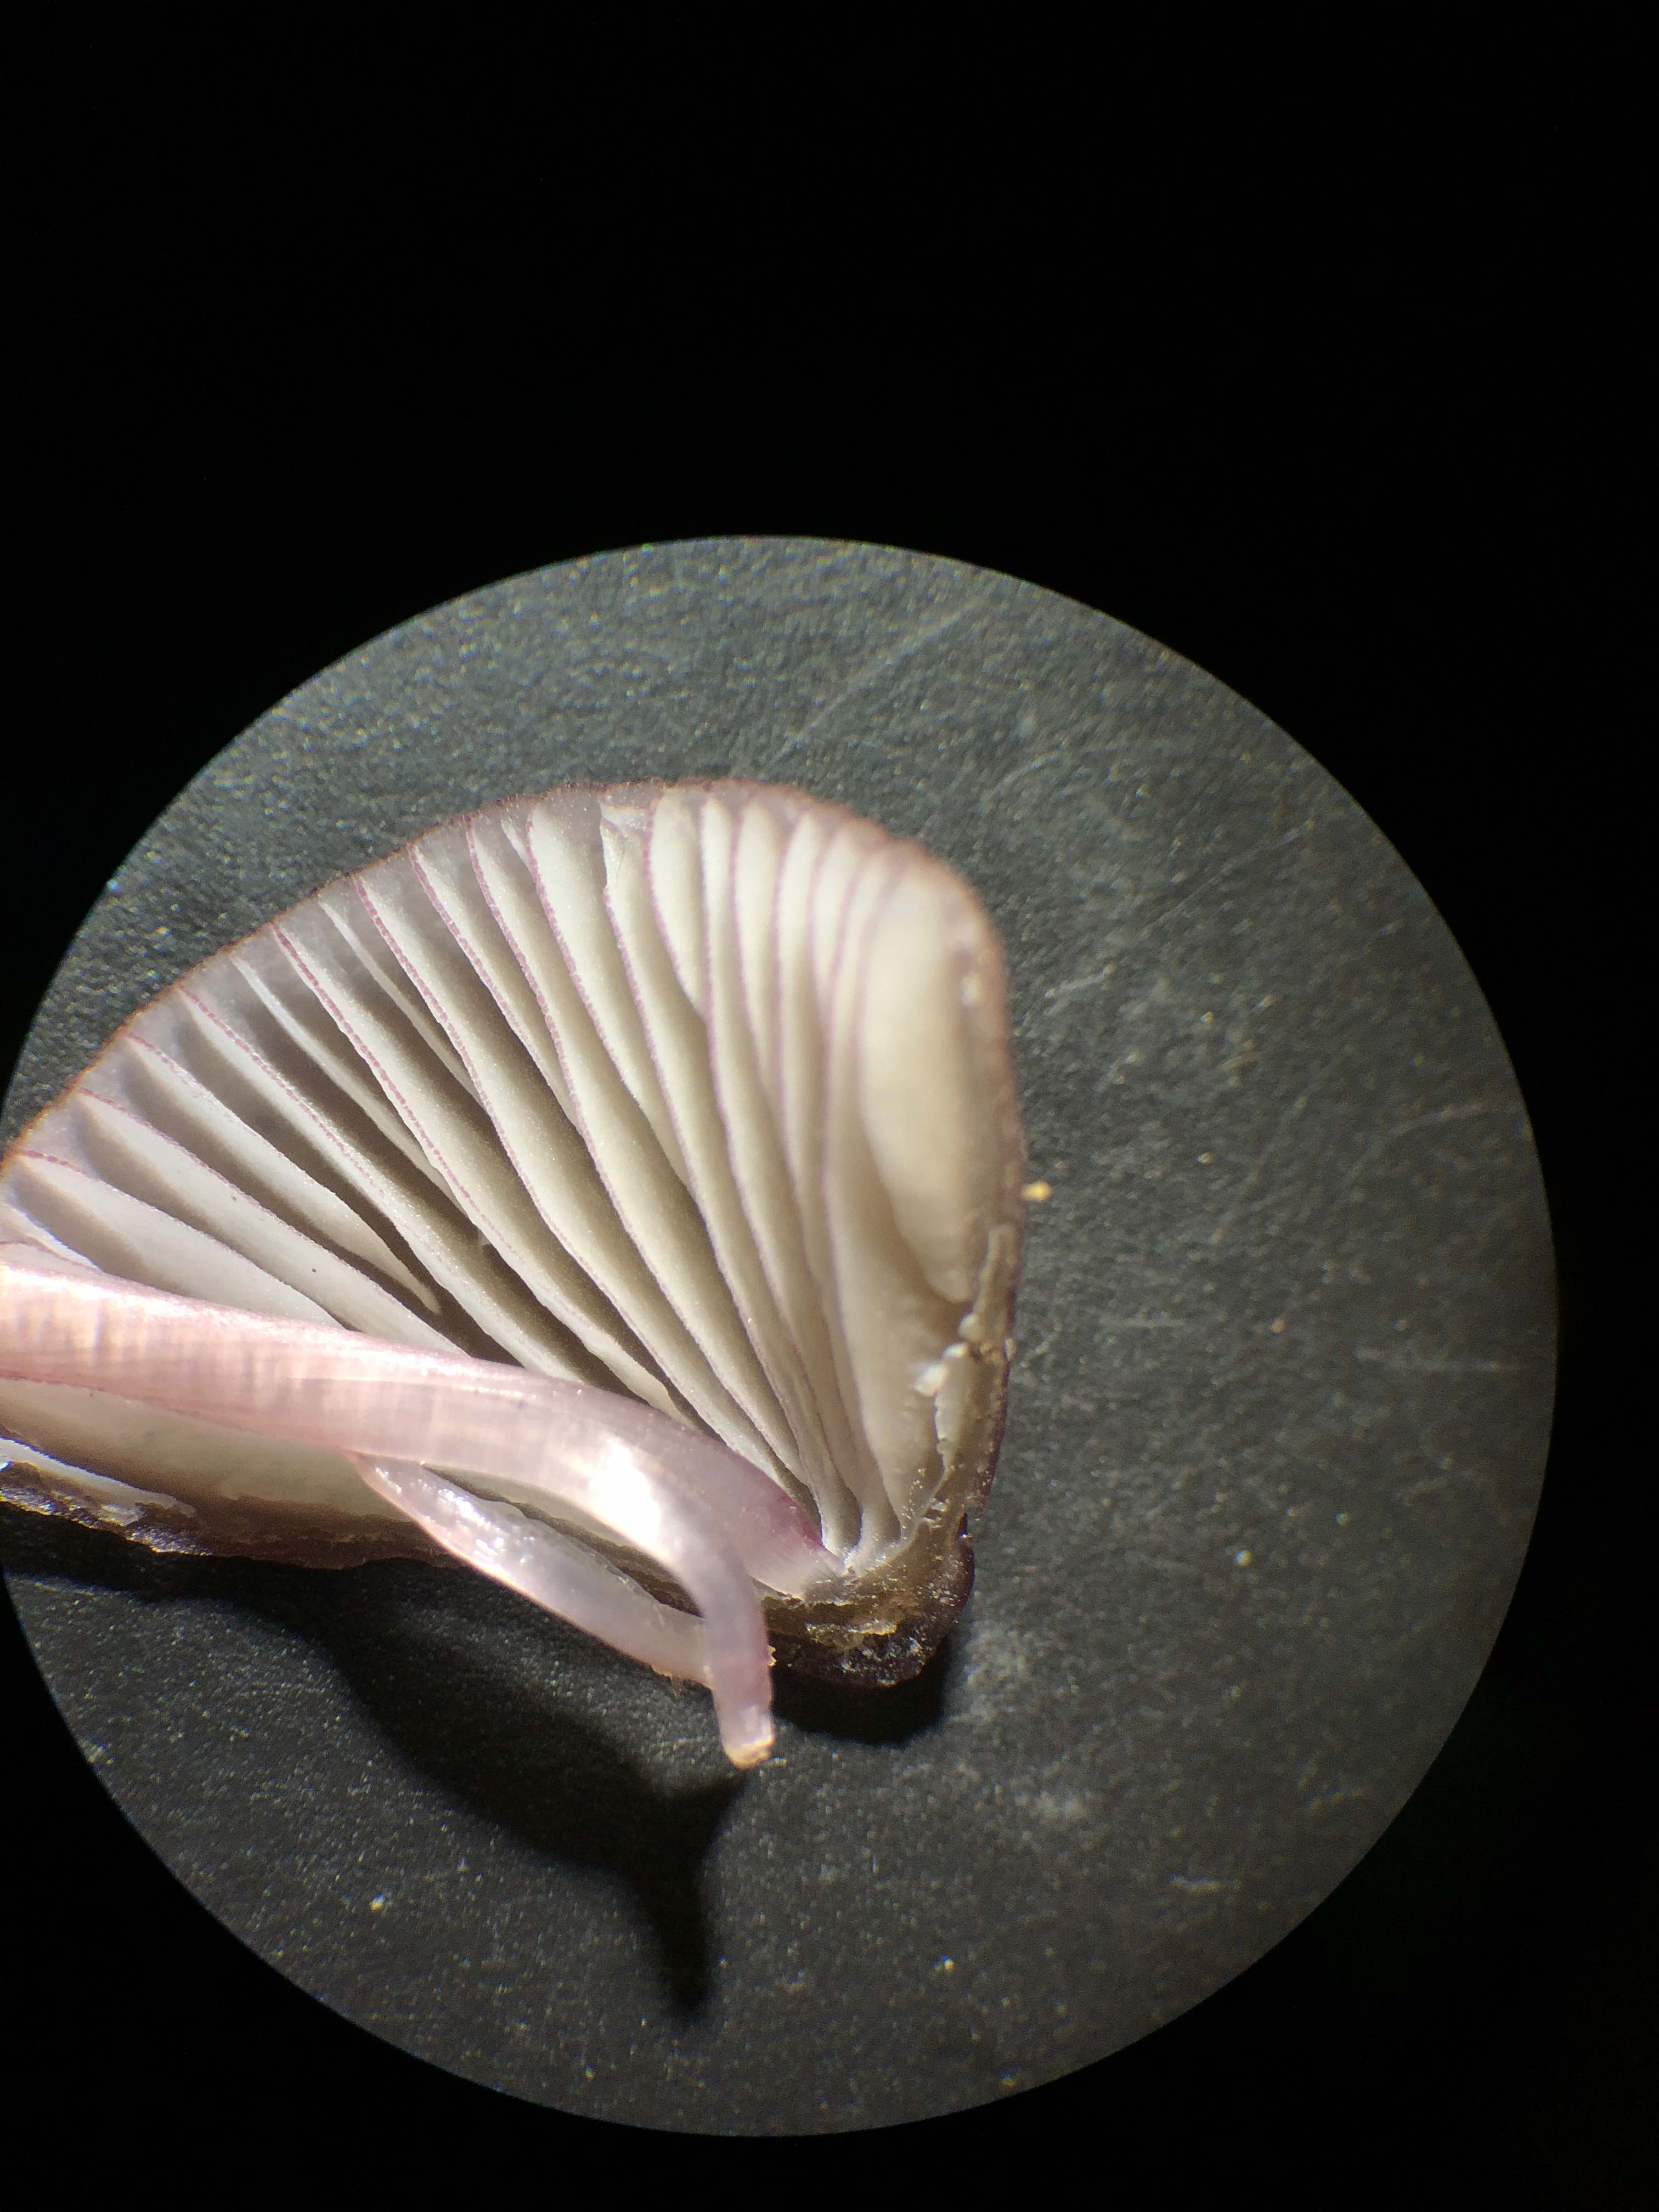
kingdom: Fungi
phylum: Basidiomycota
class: Agaricomycetes
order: Agaricales
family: Mycenaceae
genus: Mycena
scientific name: Mycena purpureofusca
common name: purpur-huesvamp
